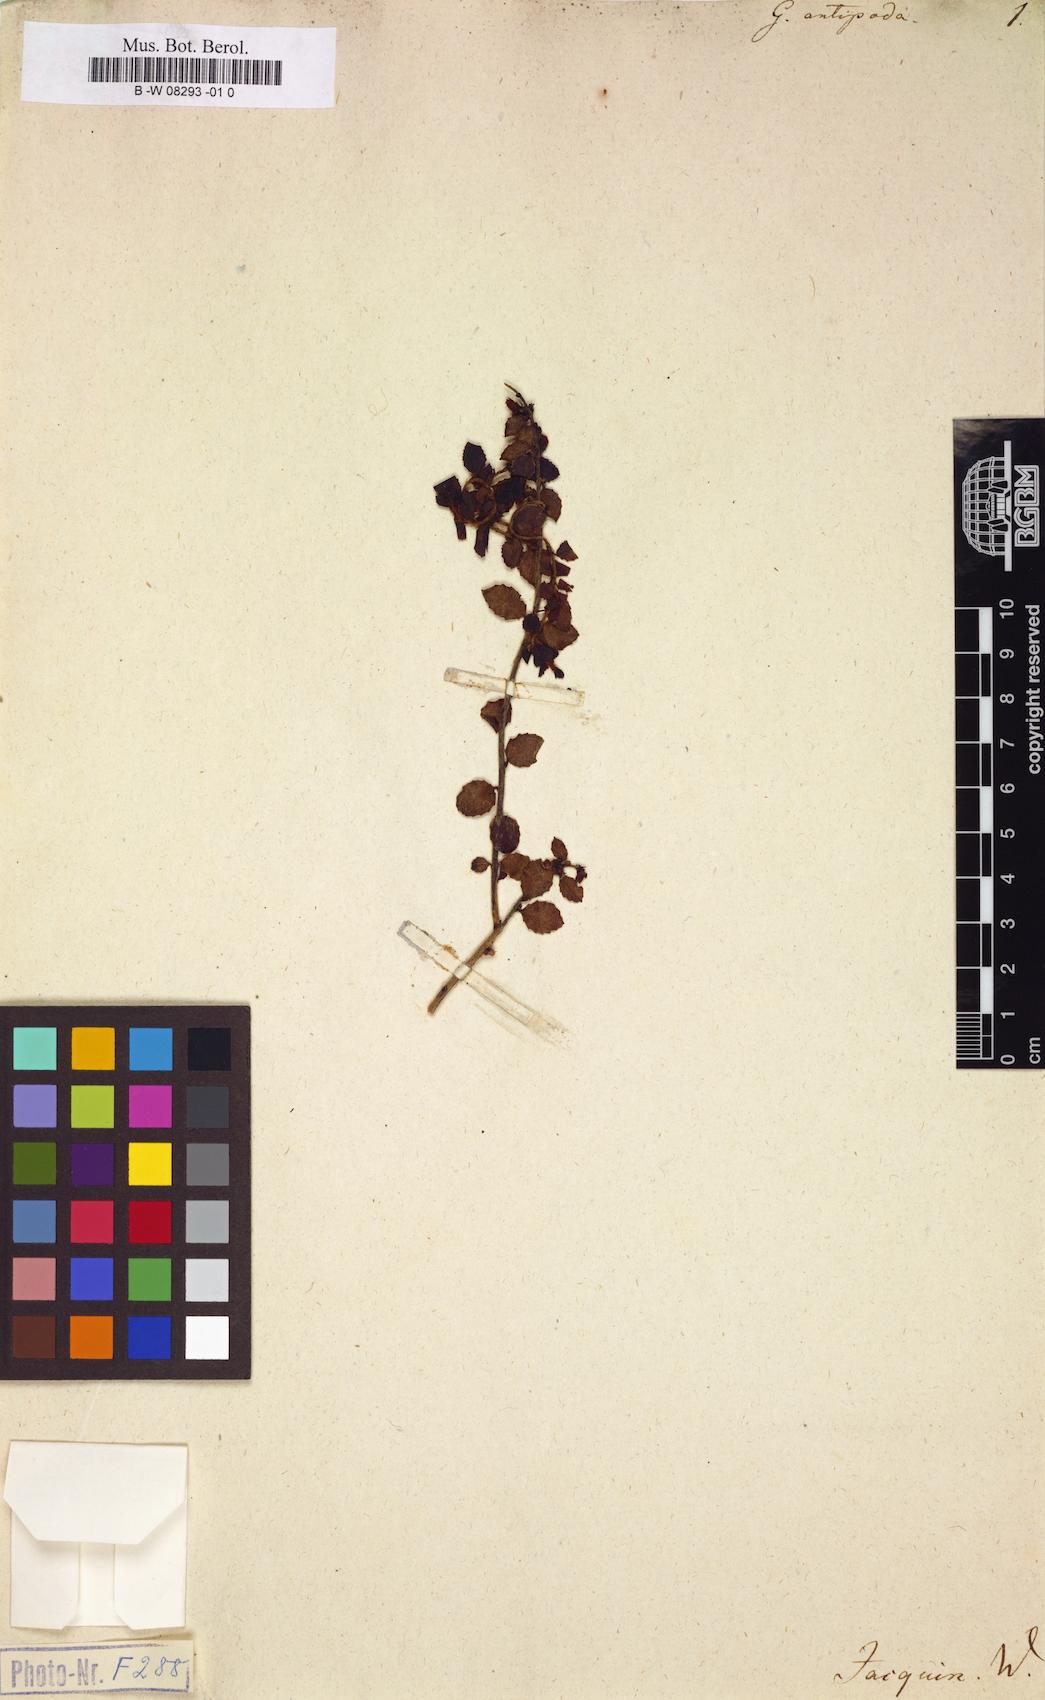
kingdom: Plantae
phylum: Tracheophyta
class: Magnoliopsida
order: Ericales
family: Ericaceae
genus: Gaultheria
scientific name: Gaultheria antipoda
